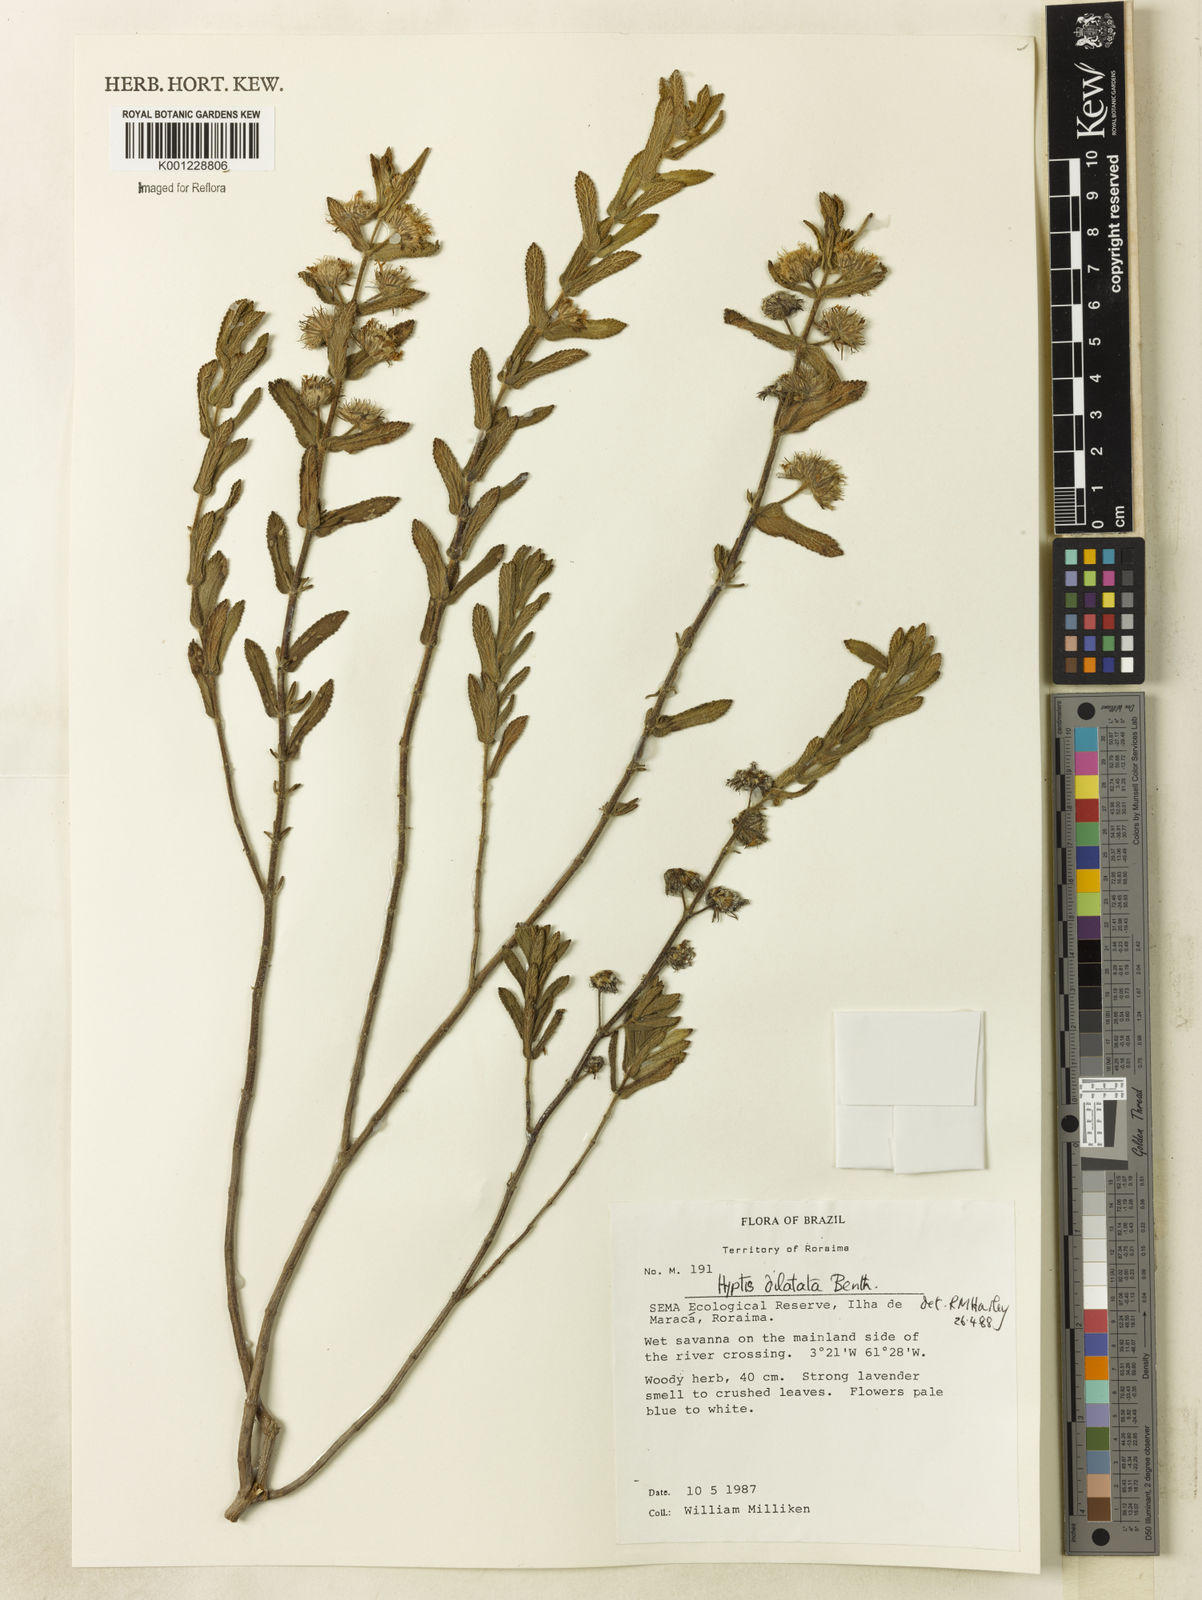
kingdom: Plantae
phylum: Tracheophyta
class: Magnoliopsida
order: Lamiales
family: Lamiaceae
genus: Hyptis
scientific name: Hyptis dilatata
